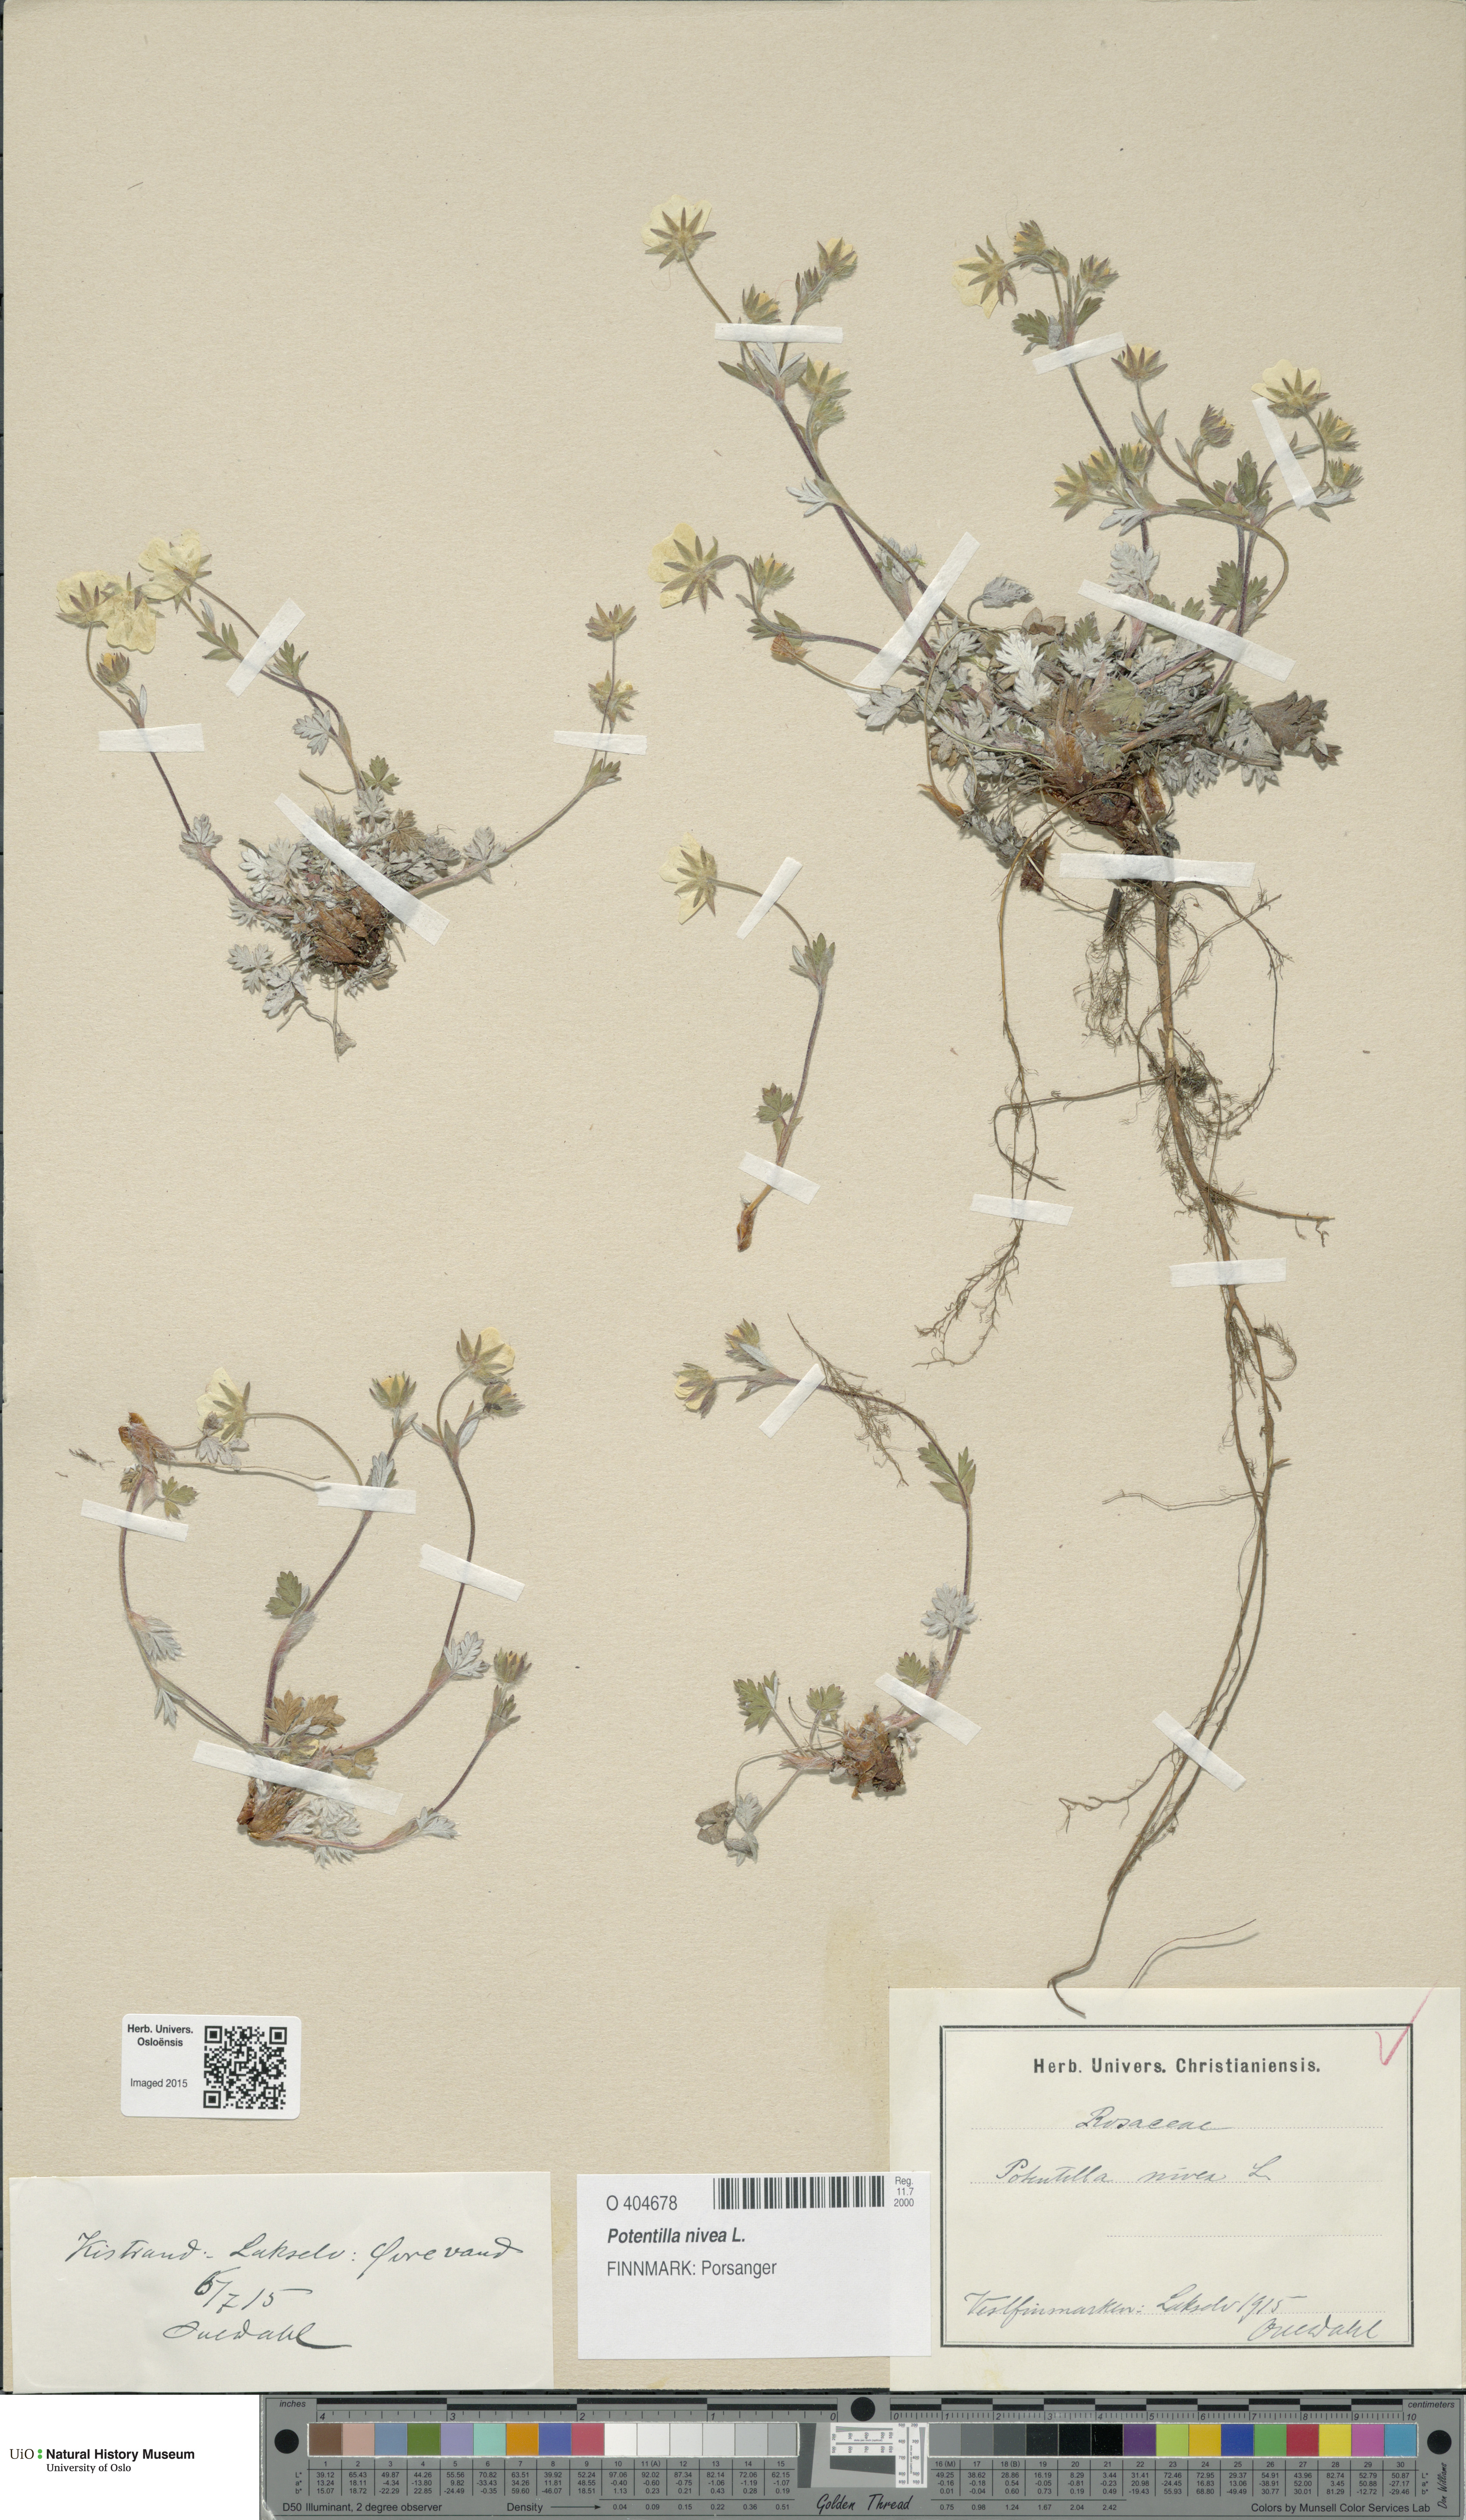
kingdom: Plantae
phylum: Tracheophyta
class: Magnoliopsida
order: Rosales
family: Rosaceae
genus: Potentilla
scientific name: Potentilla arenosa
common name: Bluff cinquefoil
